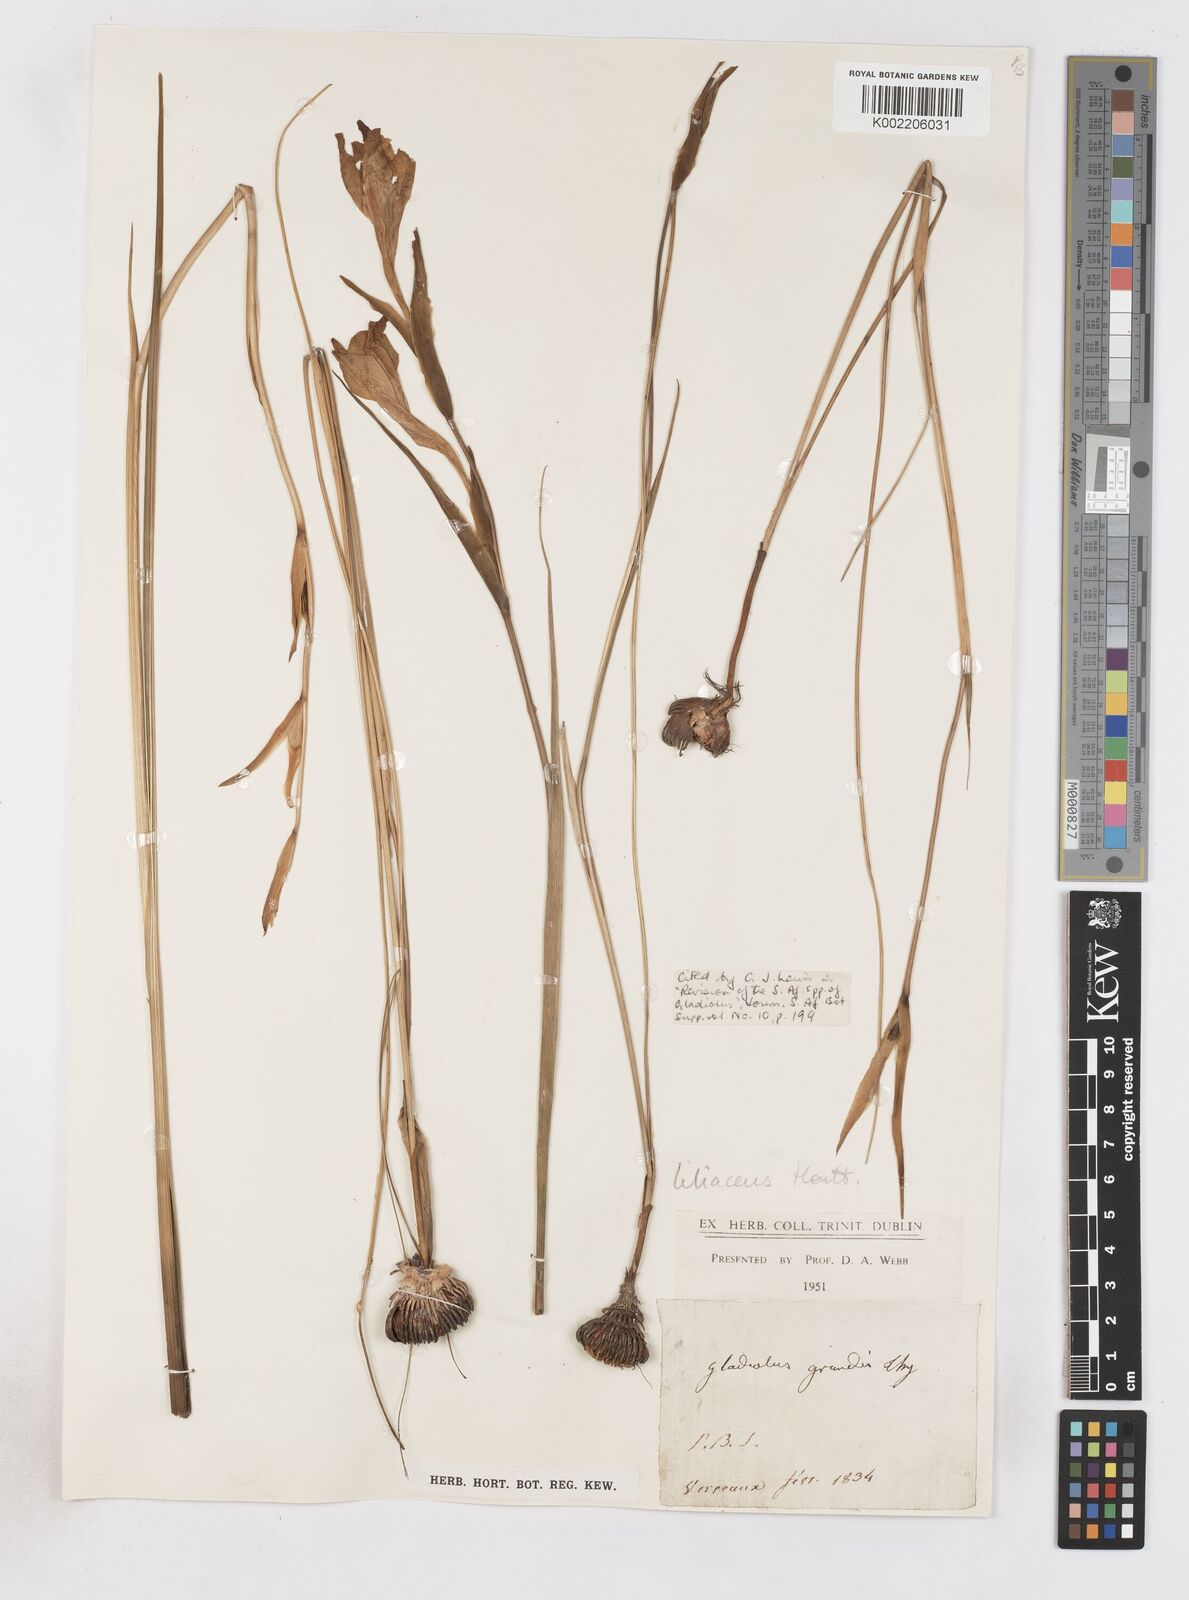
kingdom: Plantae
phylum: Tracheophyta
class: Liliopsida
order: Asparagales
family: Iridaceae
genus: Gladiolus
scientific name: Gladiolus liliaceus
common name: Large brown afrikaner
